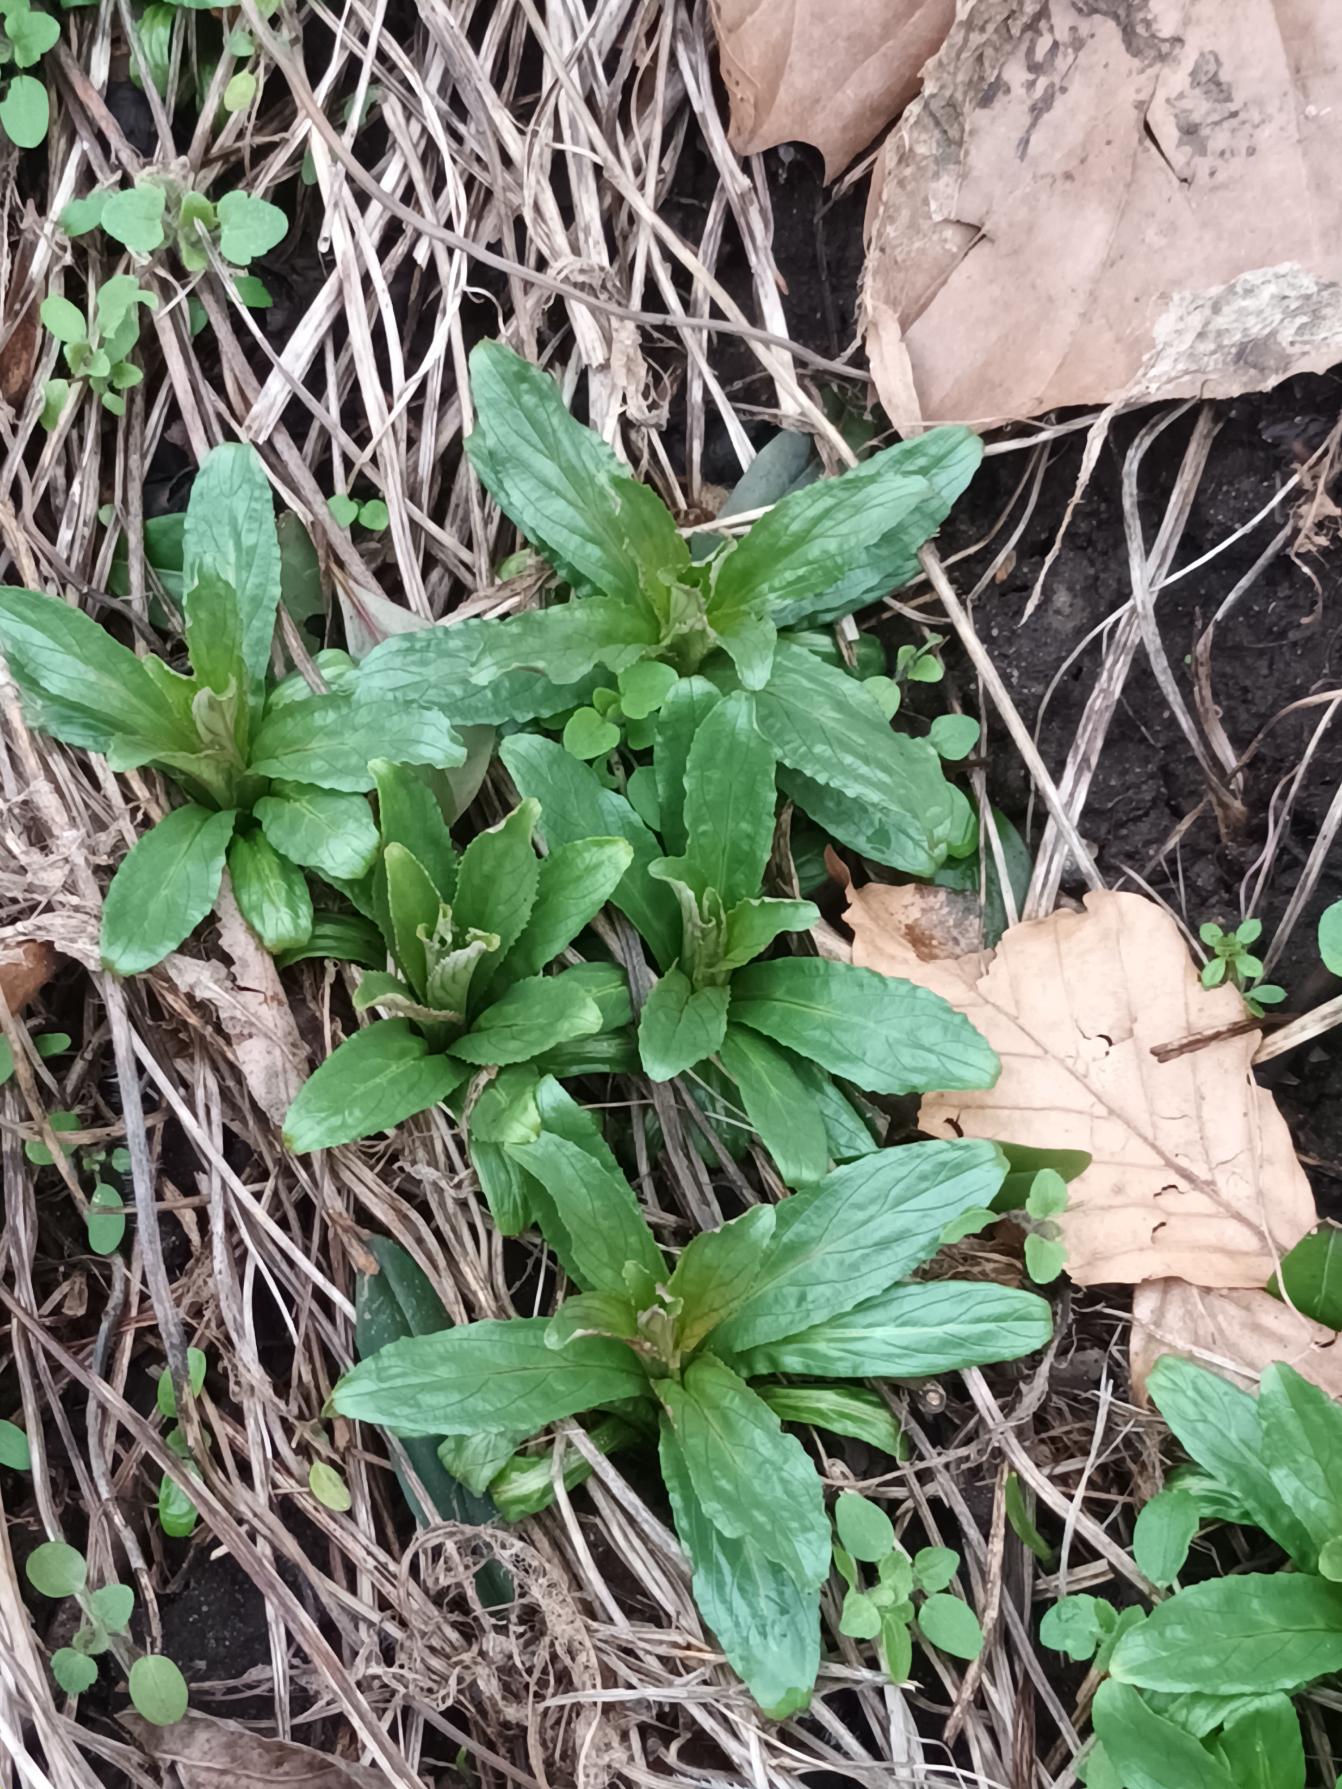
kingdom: Plantae
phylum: Tracheophyta
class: Magnoliopsida
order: Myrtales
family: Onagraceae
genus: Epilobium
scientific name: Epilobium hirsutum
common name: Lådden dueurt
